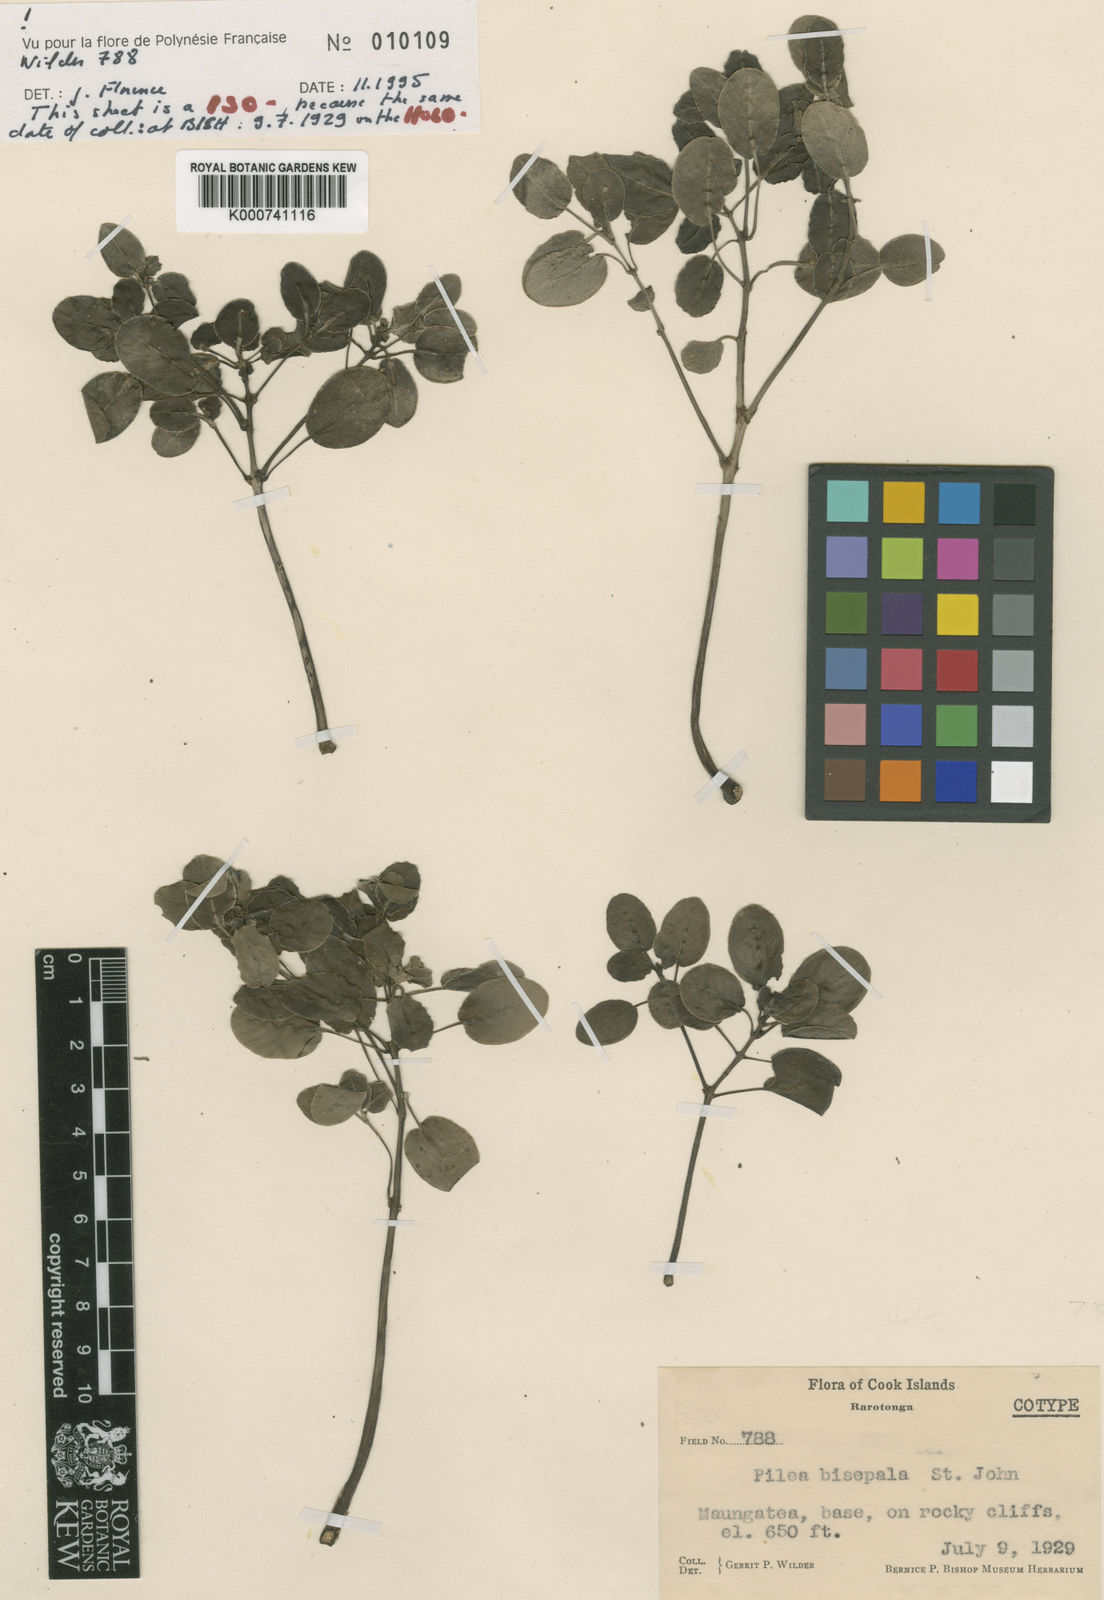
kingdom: Plantae
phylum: Tracheophyta
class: Magnoliopsida
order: Rosales
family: Urticaceae
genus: Pilea
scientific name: Pilea bisepala
